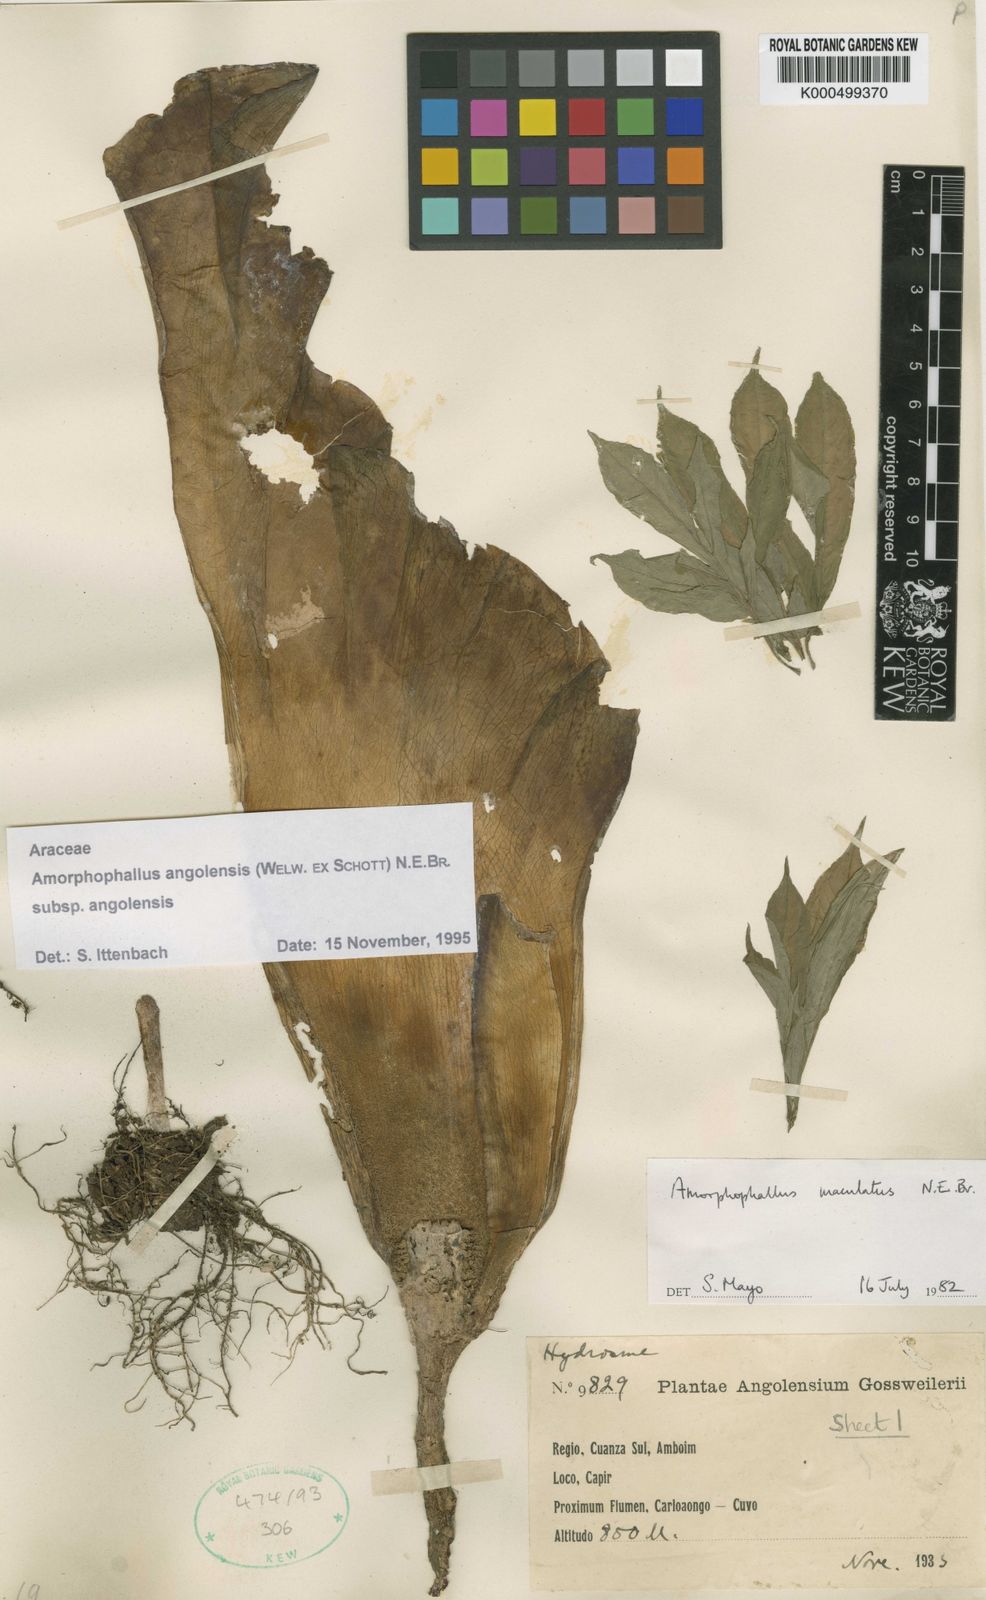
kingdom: Plantae
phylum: Tracheophyta
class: Liliopsida
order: Alismatales
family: Araceae
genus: Amorphophallus
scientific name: Amorphophallus angolensis
